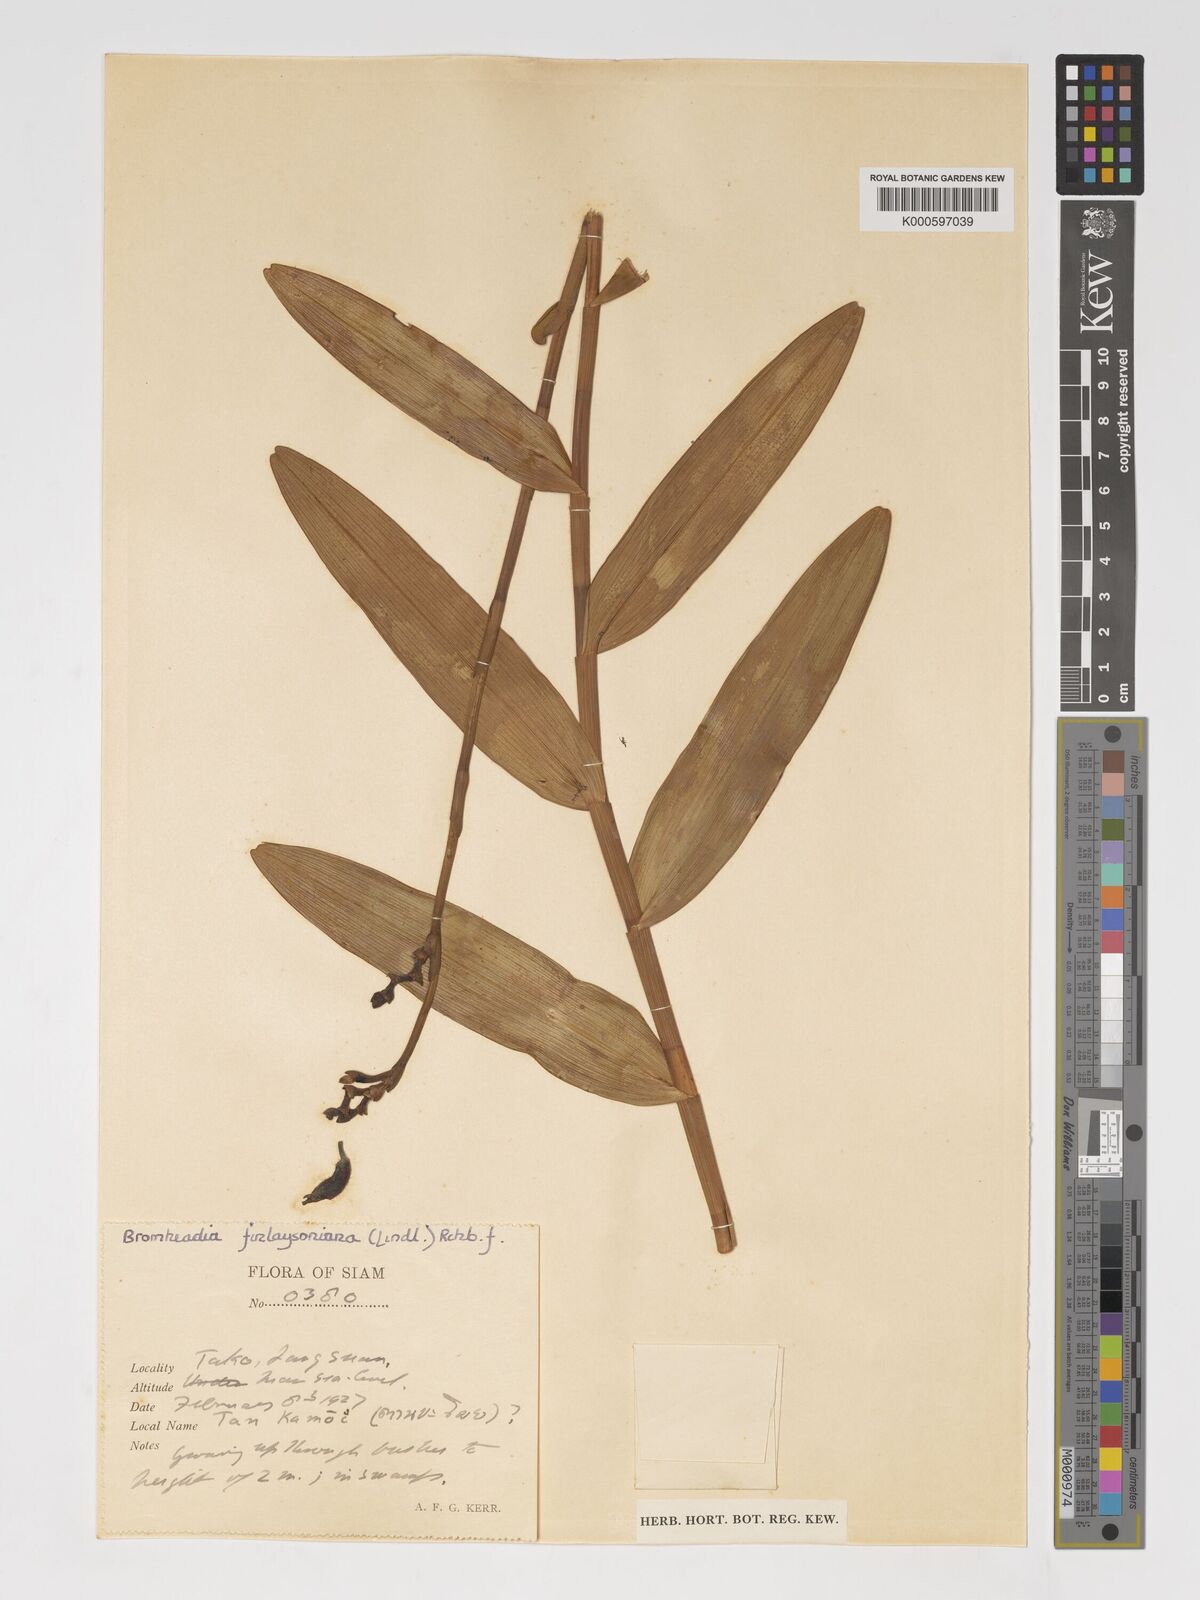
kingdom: Plantae
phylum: Tracheophyta
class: Liliopsida
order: Asparagales
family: Orchidaceae
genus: Bromheadia
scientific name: Bromheadia
